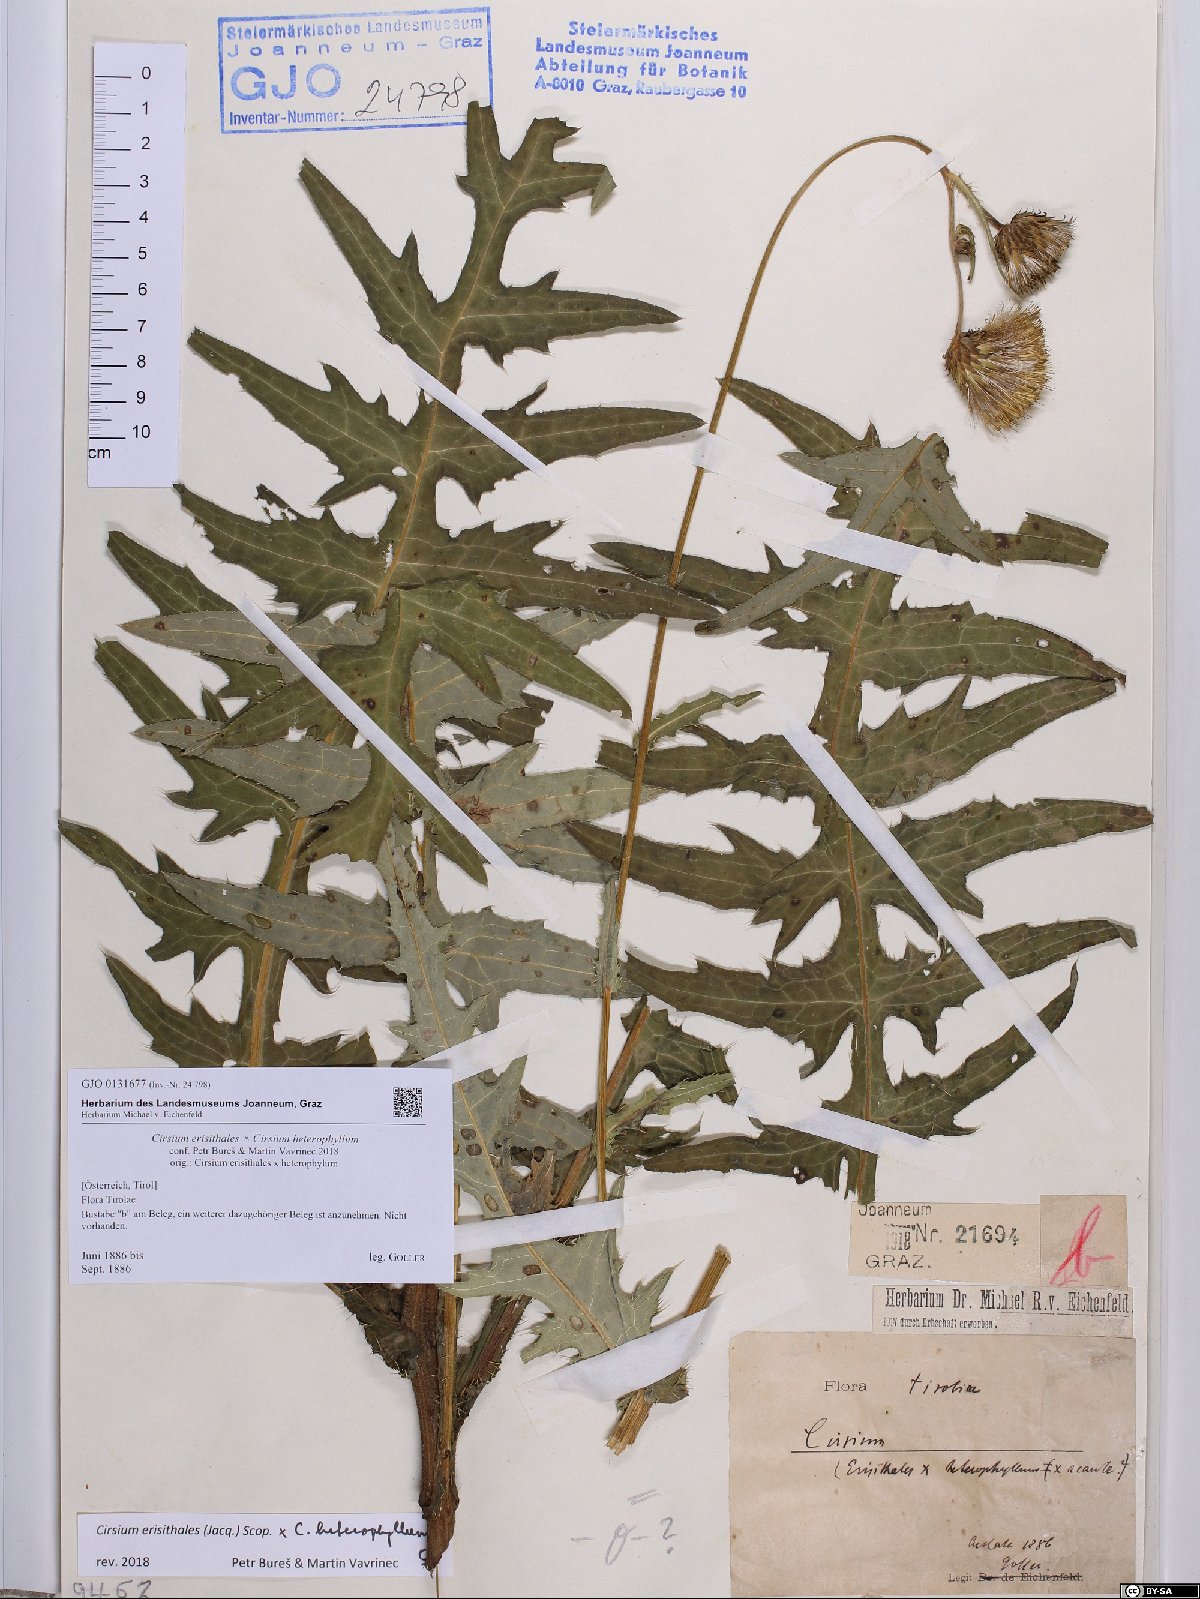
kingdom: Plantae
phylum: Tracheophyta
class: Magnoliopsida
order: Asterales
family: Asteraceae
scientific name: Asteraceae
